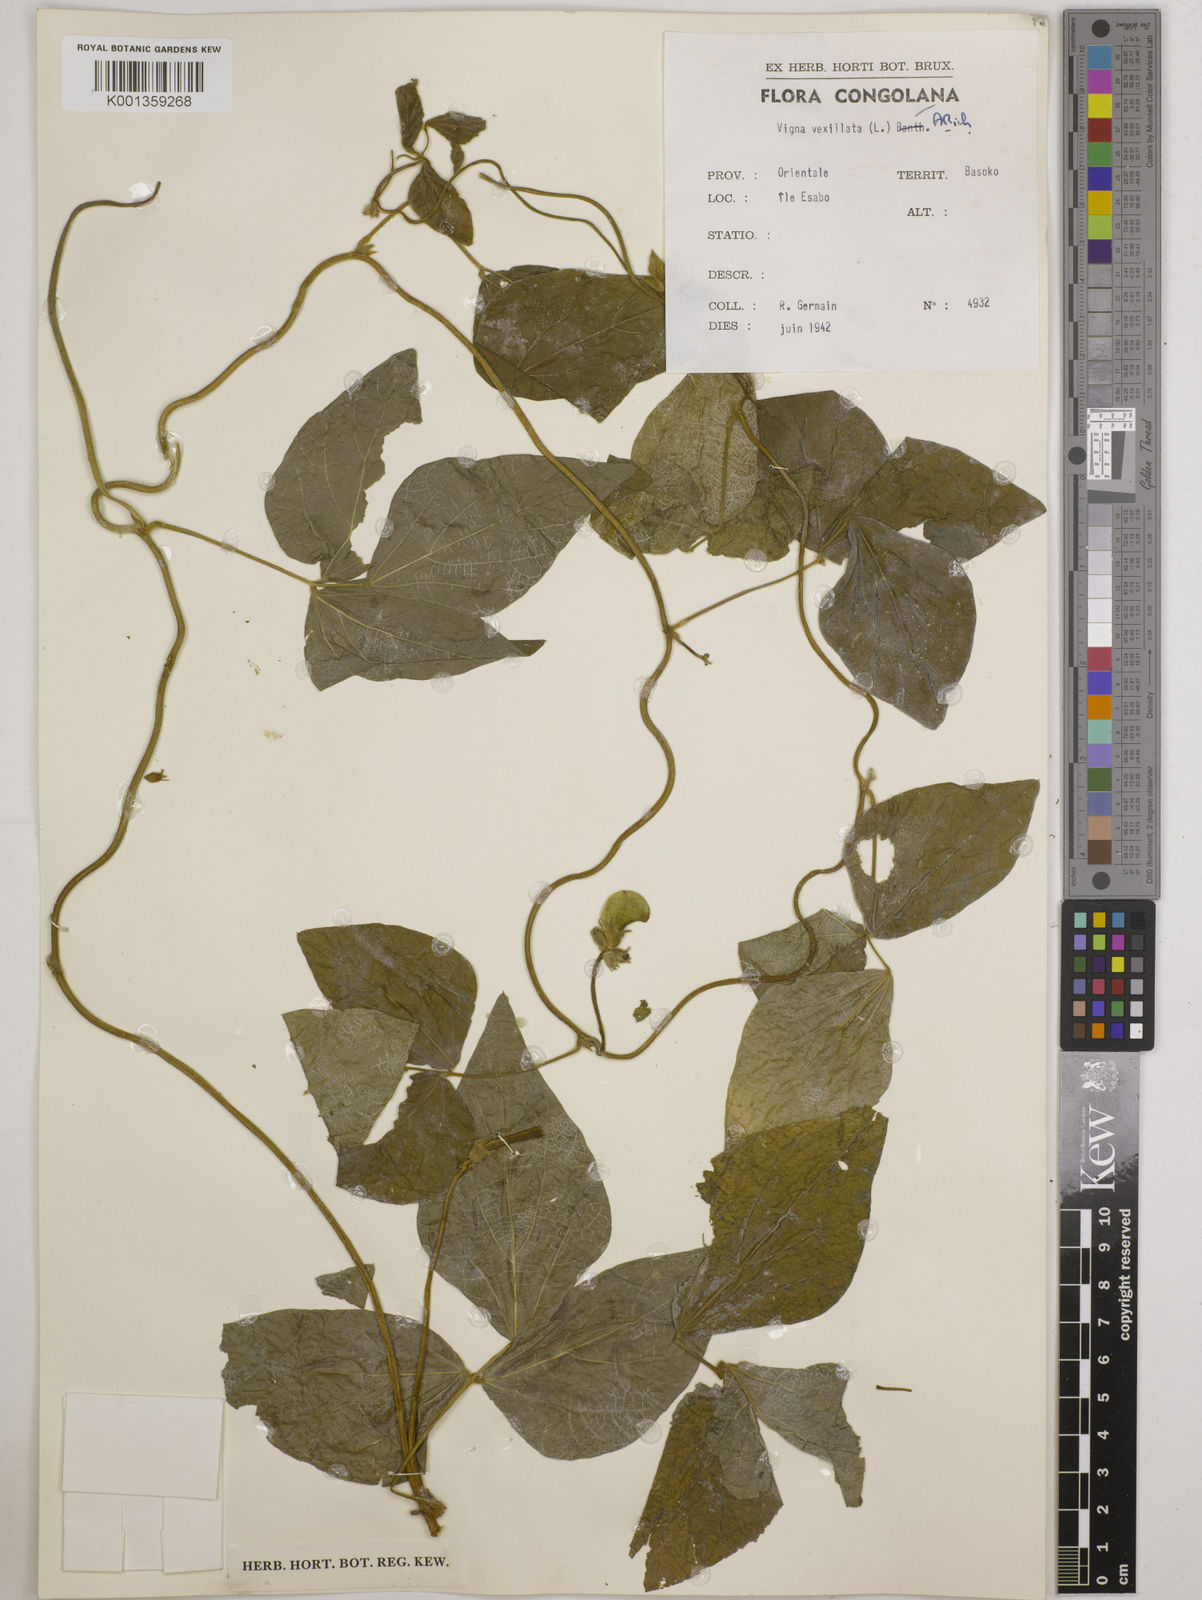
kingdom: Plantae
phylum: Tracheophyta
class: Magnoliopsida
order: Fabales
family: Fabaceae
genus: Vigna
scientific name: Vigna vexillata
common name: Zombi pea
